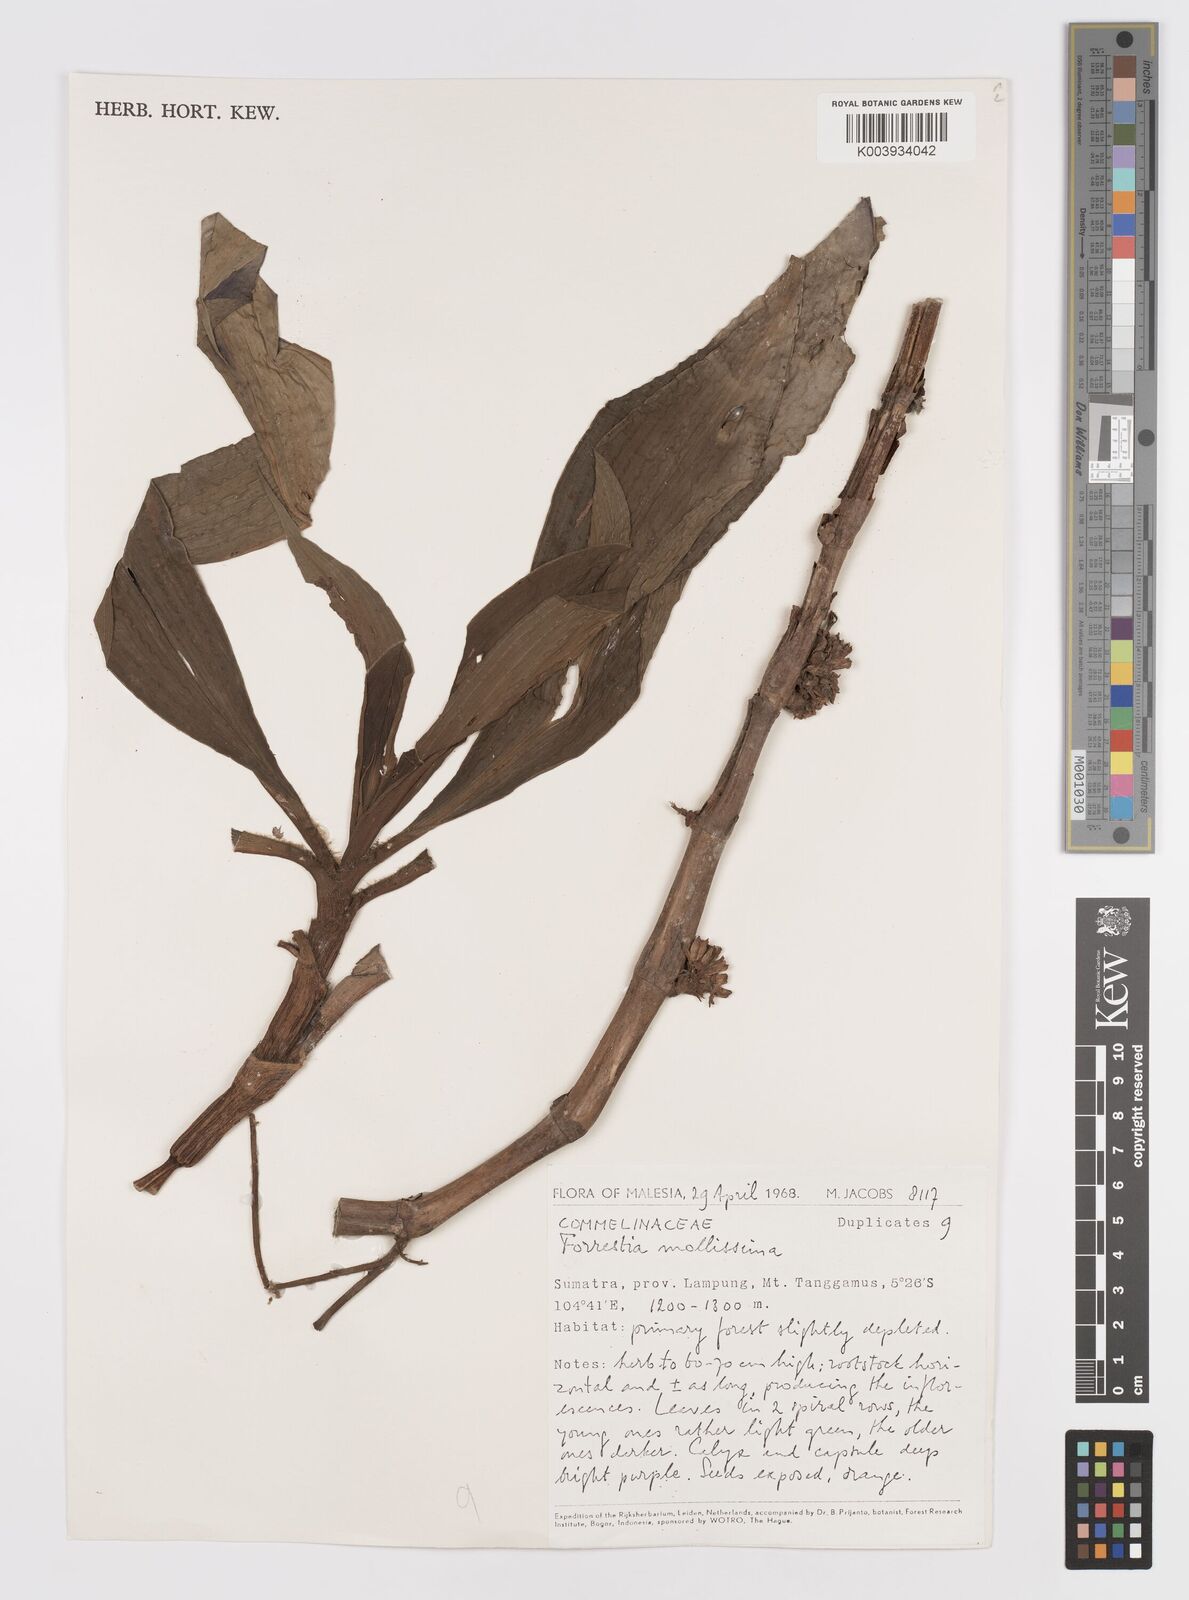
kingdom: Plantae
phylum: Tracheophyta
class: Liliopsida
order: Commelinales
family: Commelinaceae
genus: Amischotolype
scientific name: Amischotolype mollissima
